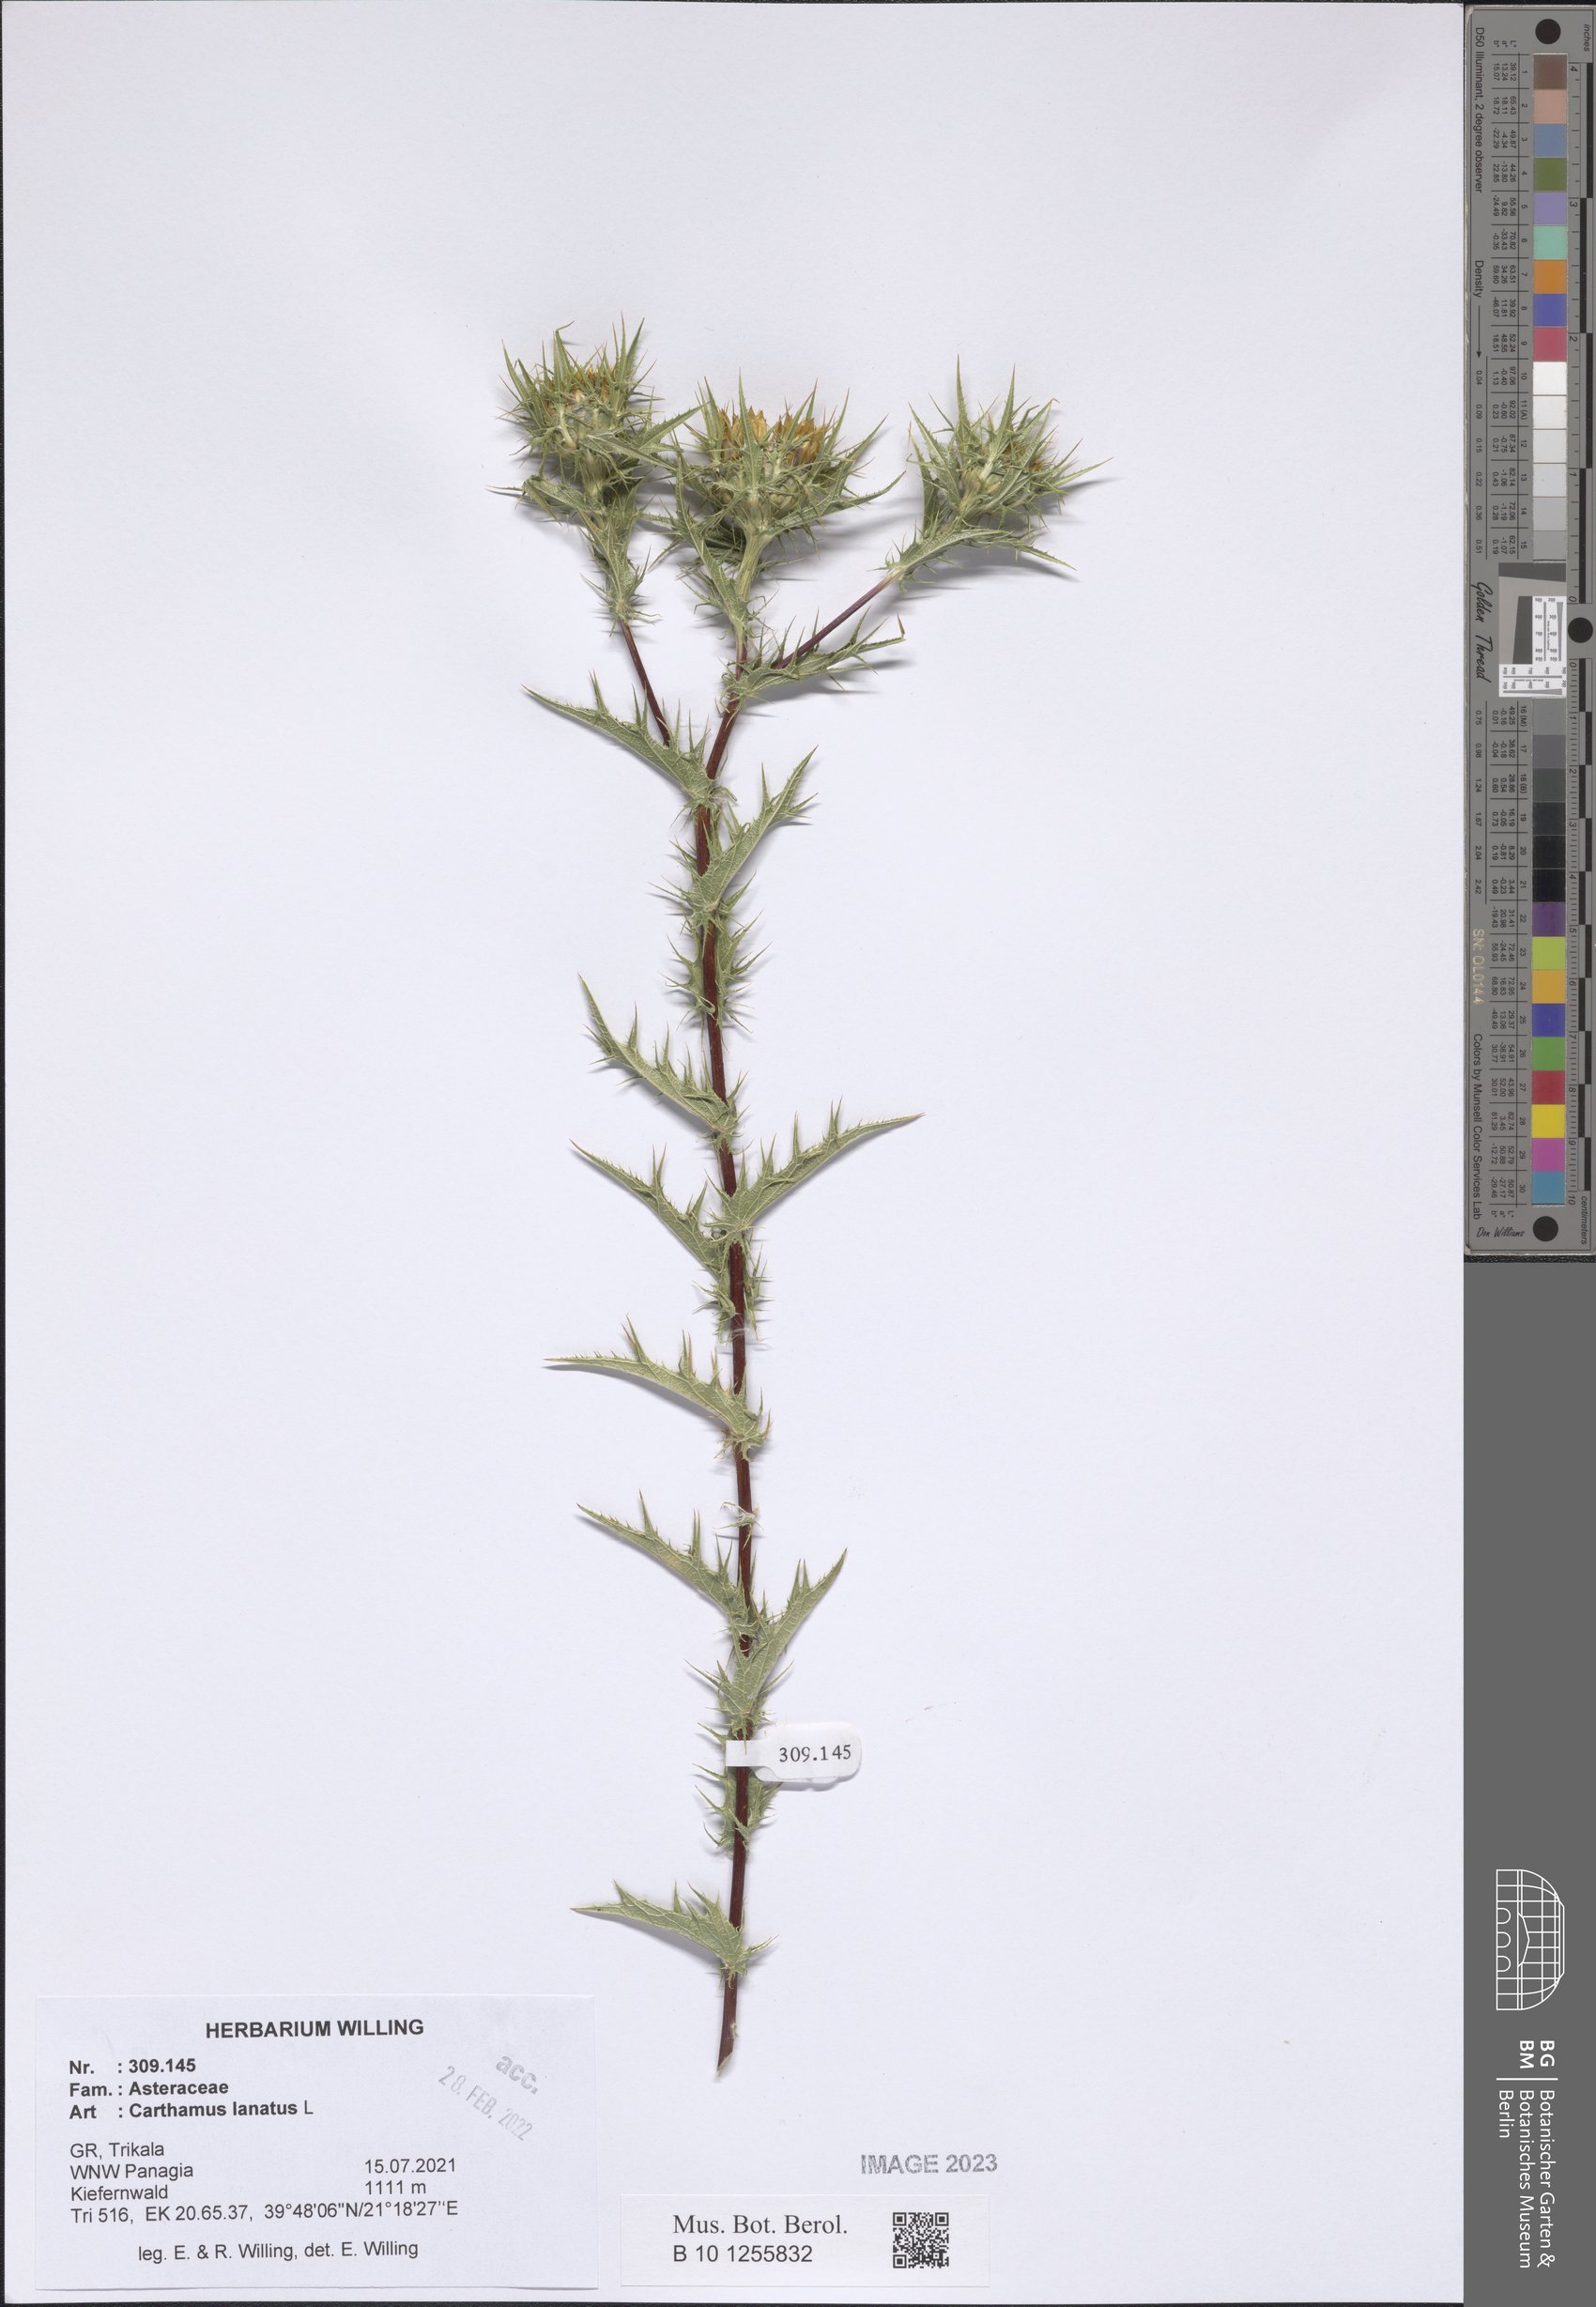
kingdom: Plantae
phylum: Tracheophyta
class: Magnoliopsida
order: Asterales
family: Asteraceae
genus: Carthamus
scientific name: Carthamus lanatus
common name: Downy safflower
